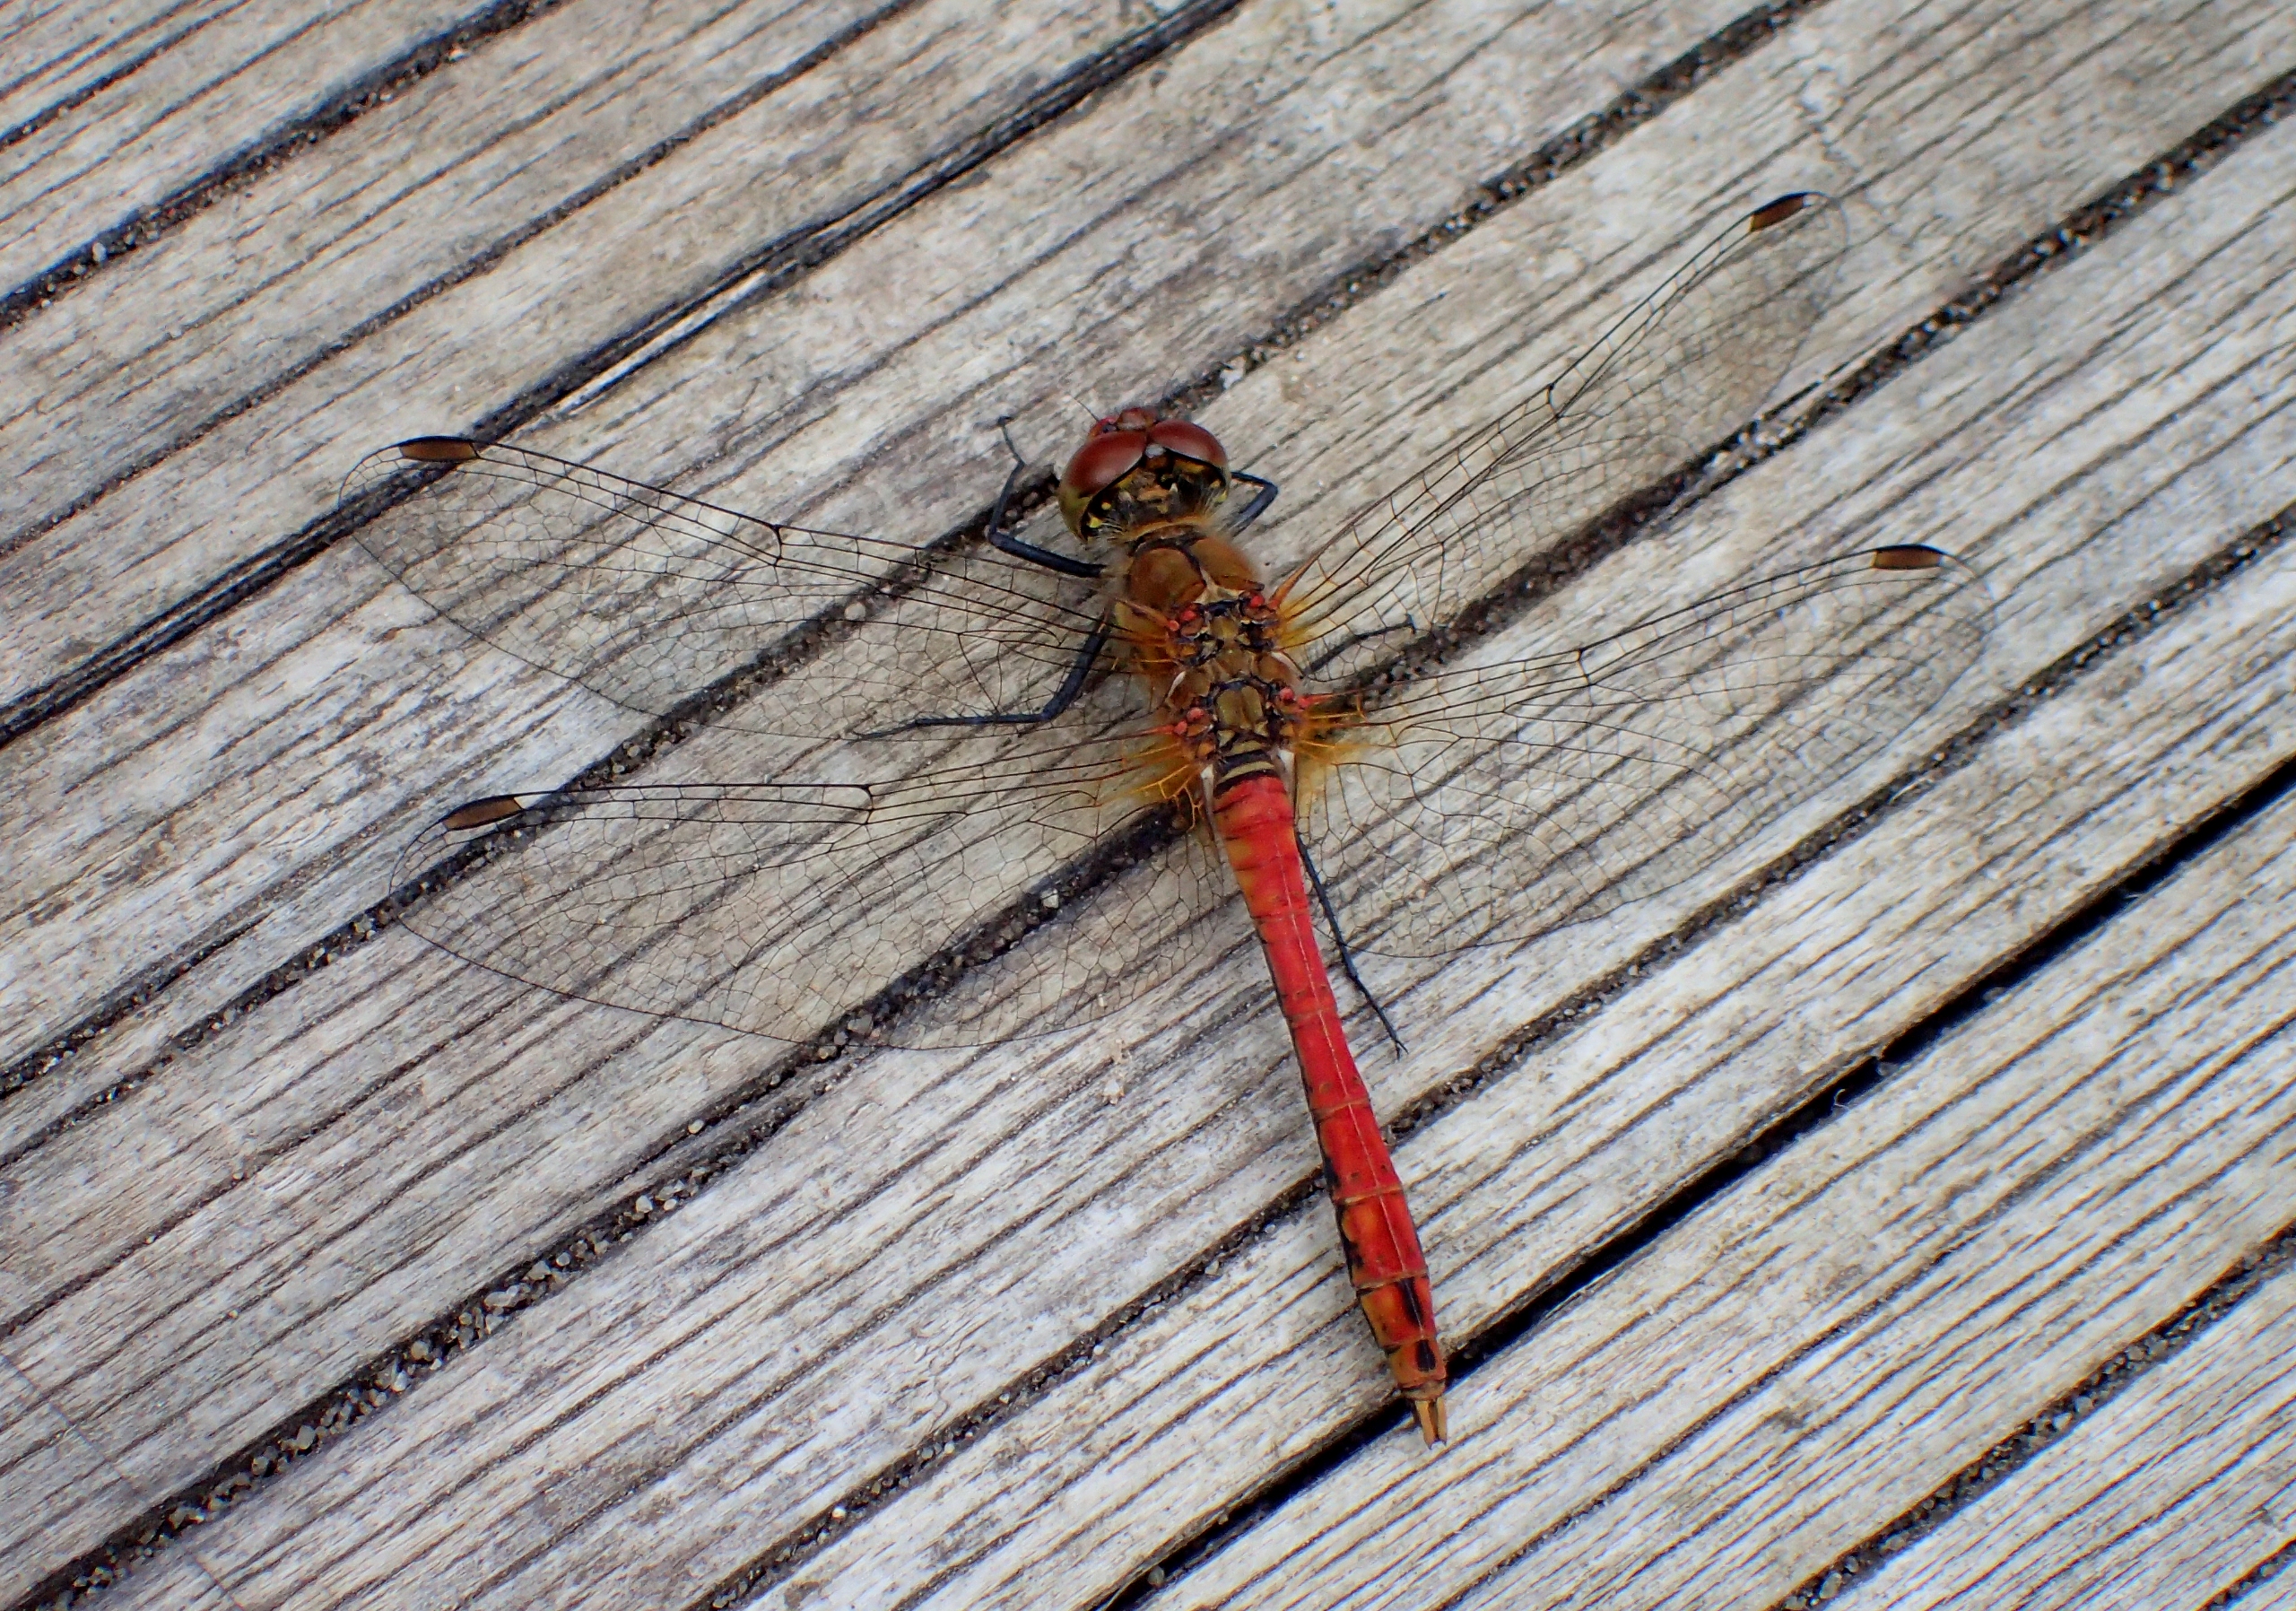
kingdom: Animalia
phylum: Arthropoda
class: Insecta
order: Odonata
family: Libellulidae
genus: Sympetrum
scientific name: Sympetrum sanguineum
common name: Blodrød hedelibel
